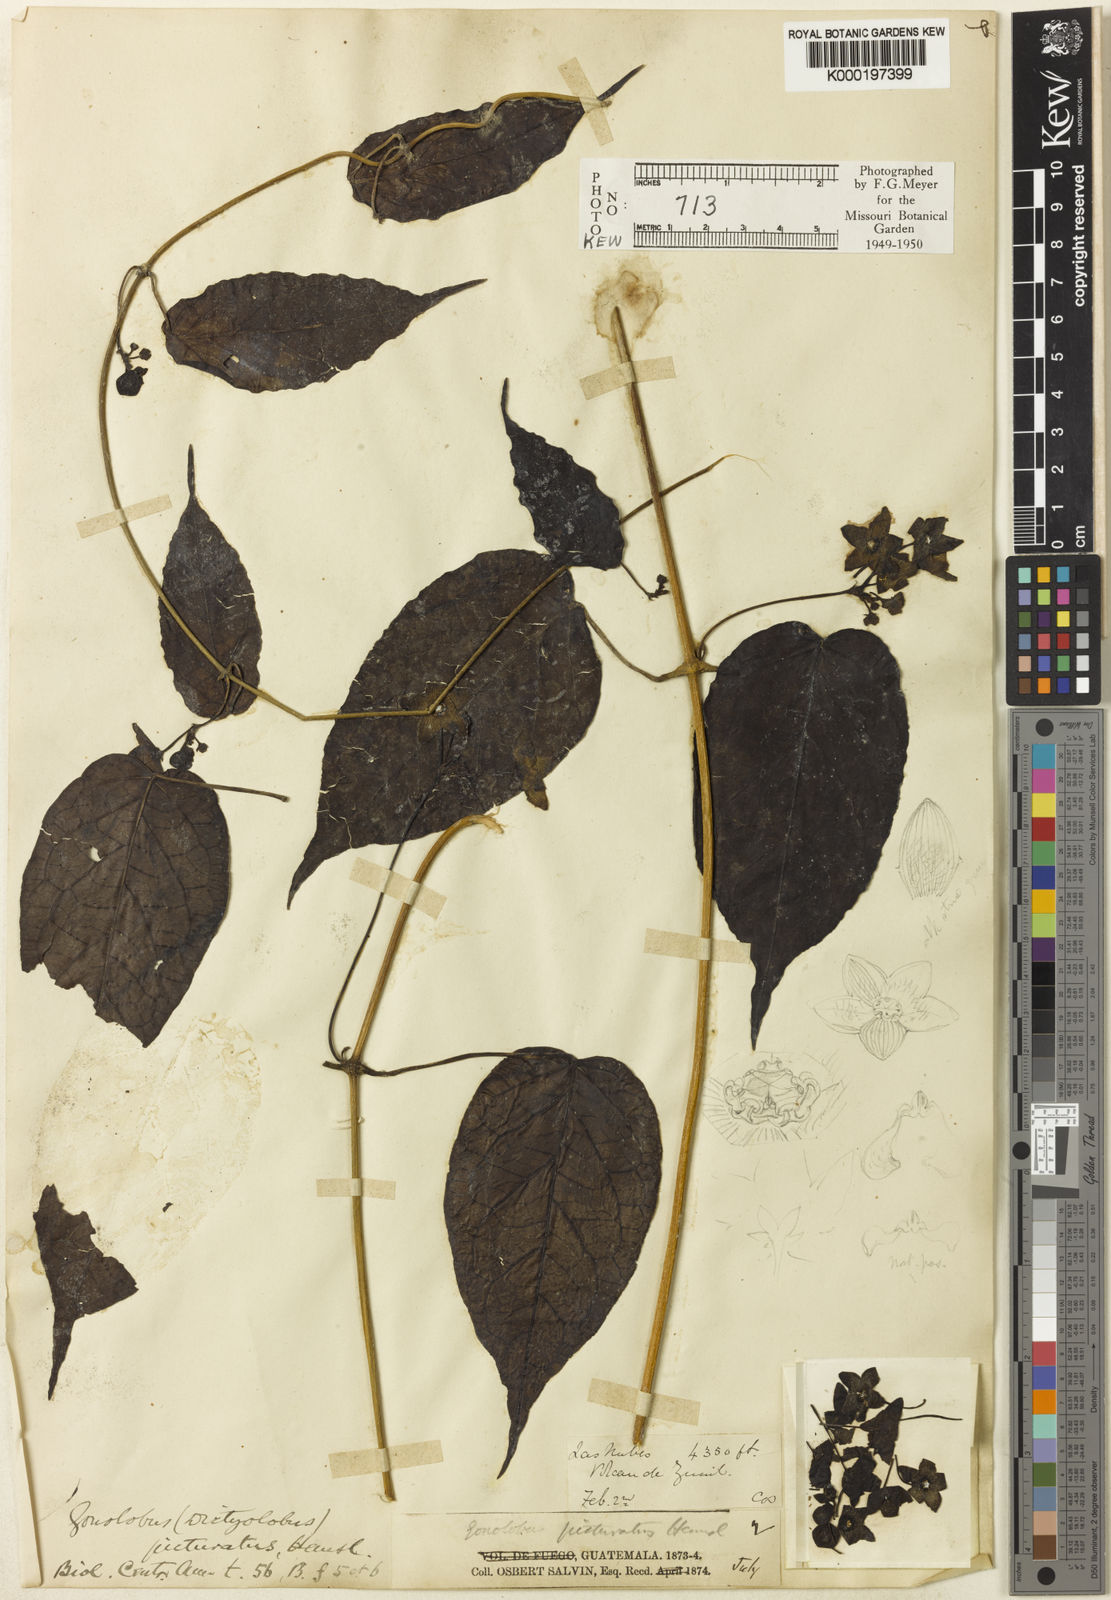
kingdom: Plantae
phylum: Tracheophyta
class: Magnoliopsida
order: Gentianales
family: Apocynaceae
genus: Matelea
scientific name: Matelea picturata
